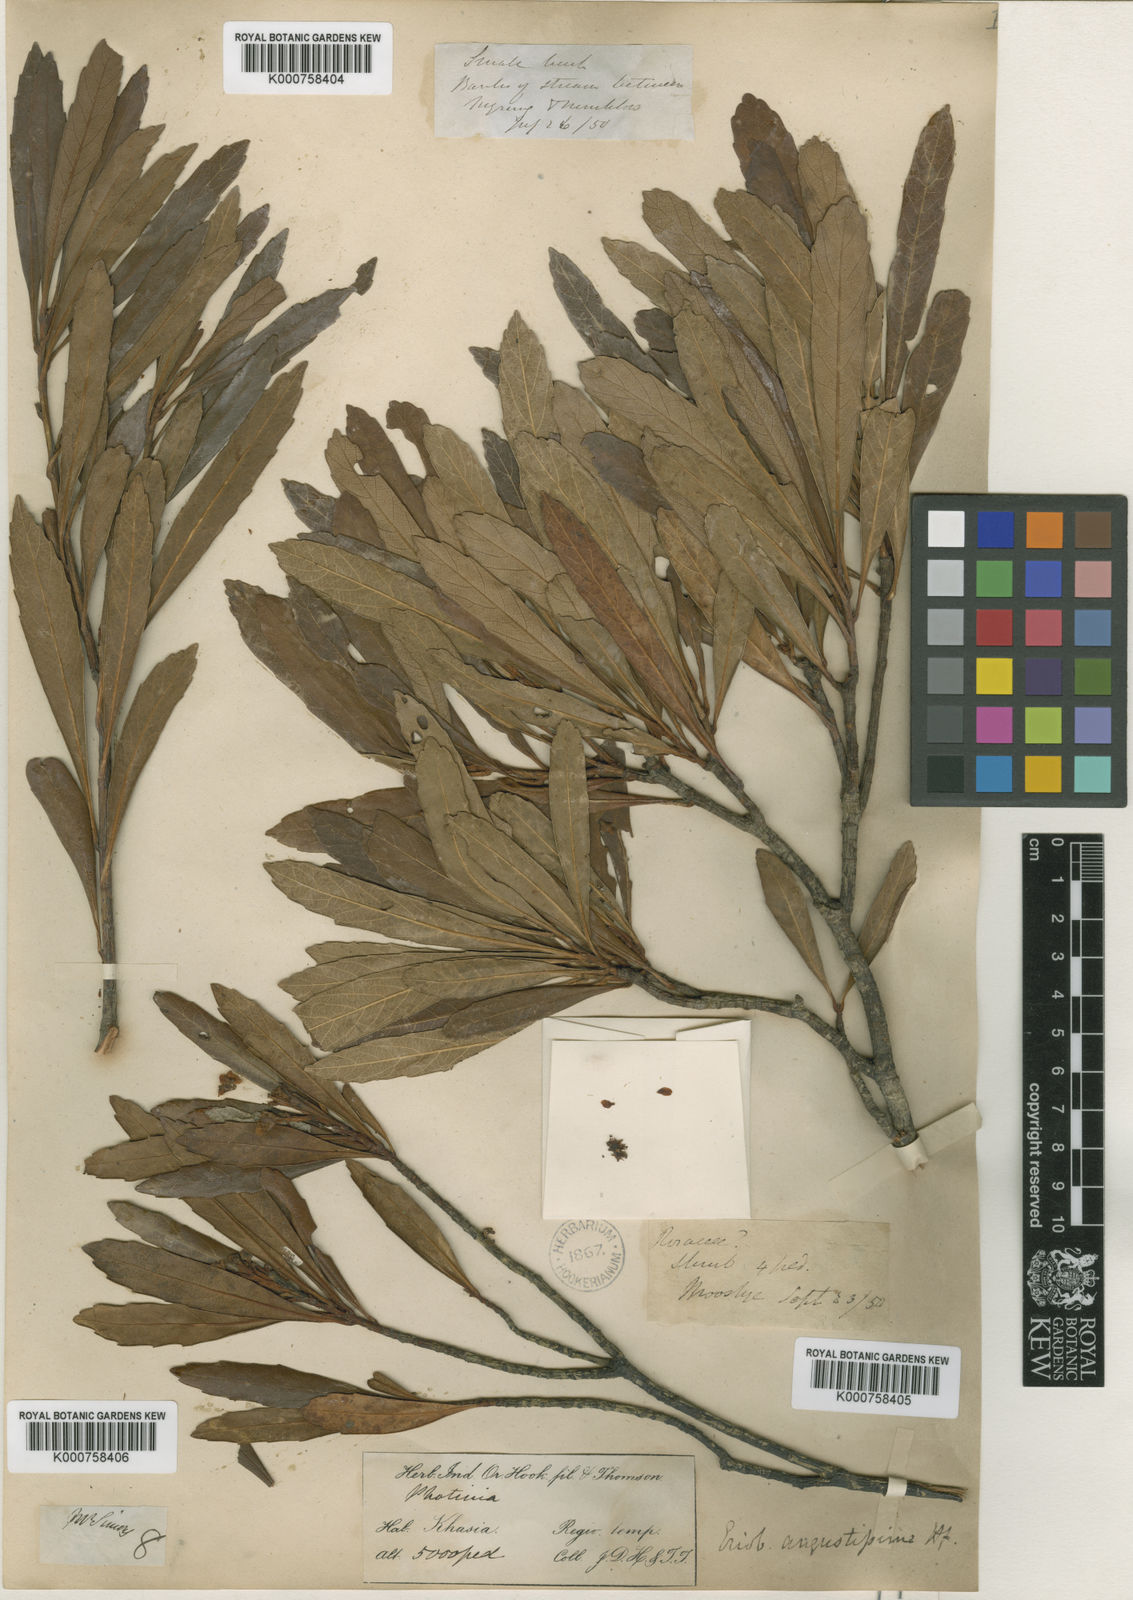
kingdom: Plantae
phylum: Tracheophyta
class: Magnoliopsida
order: Rosales
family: Rosaceae
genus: Rhaphiolepis
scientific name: Rhaphiolepis angustissima
